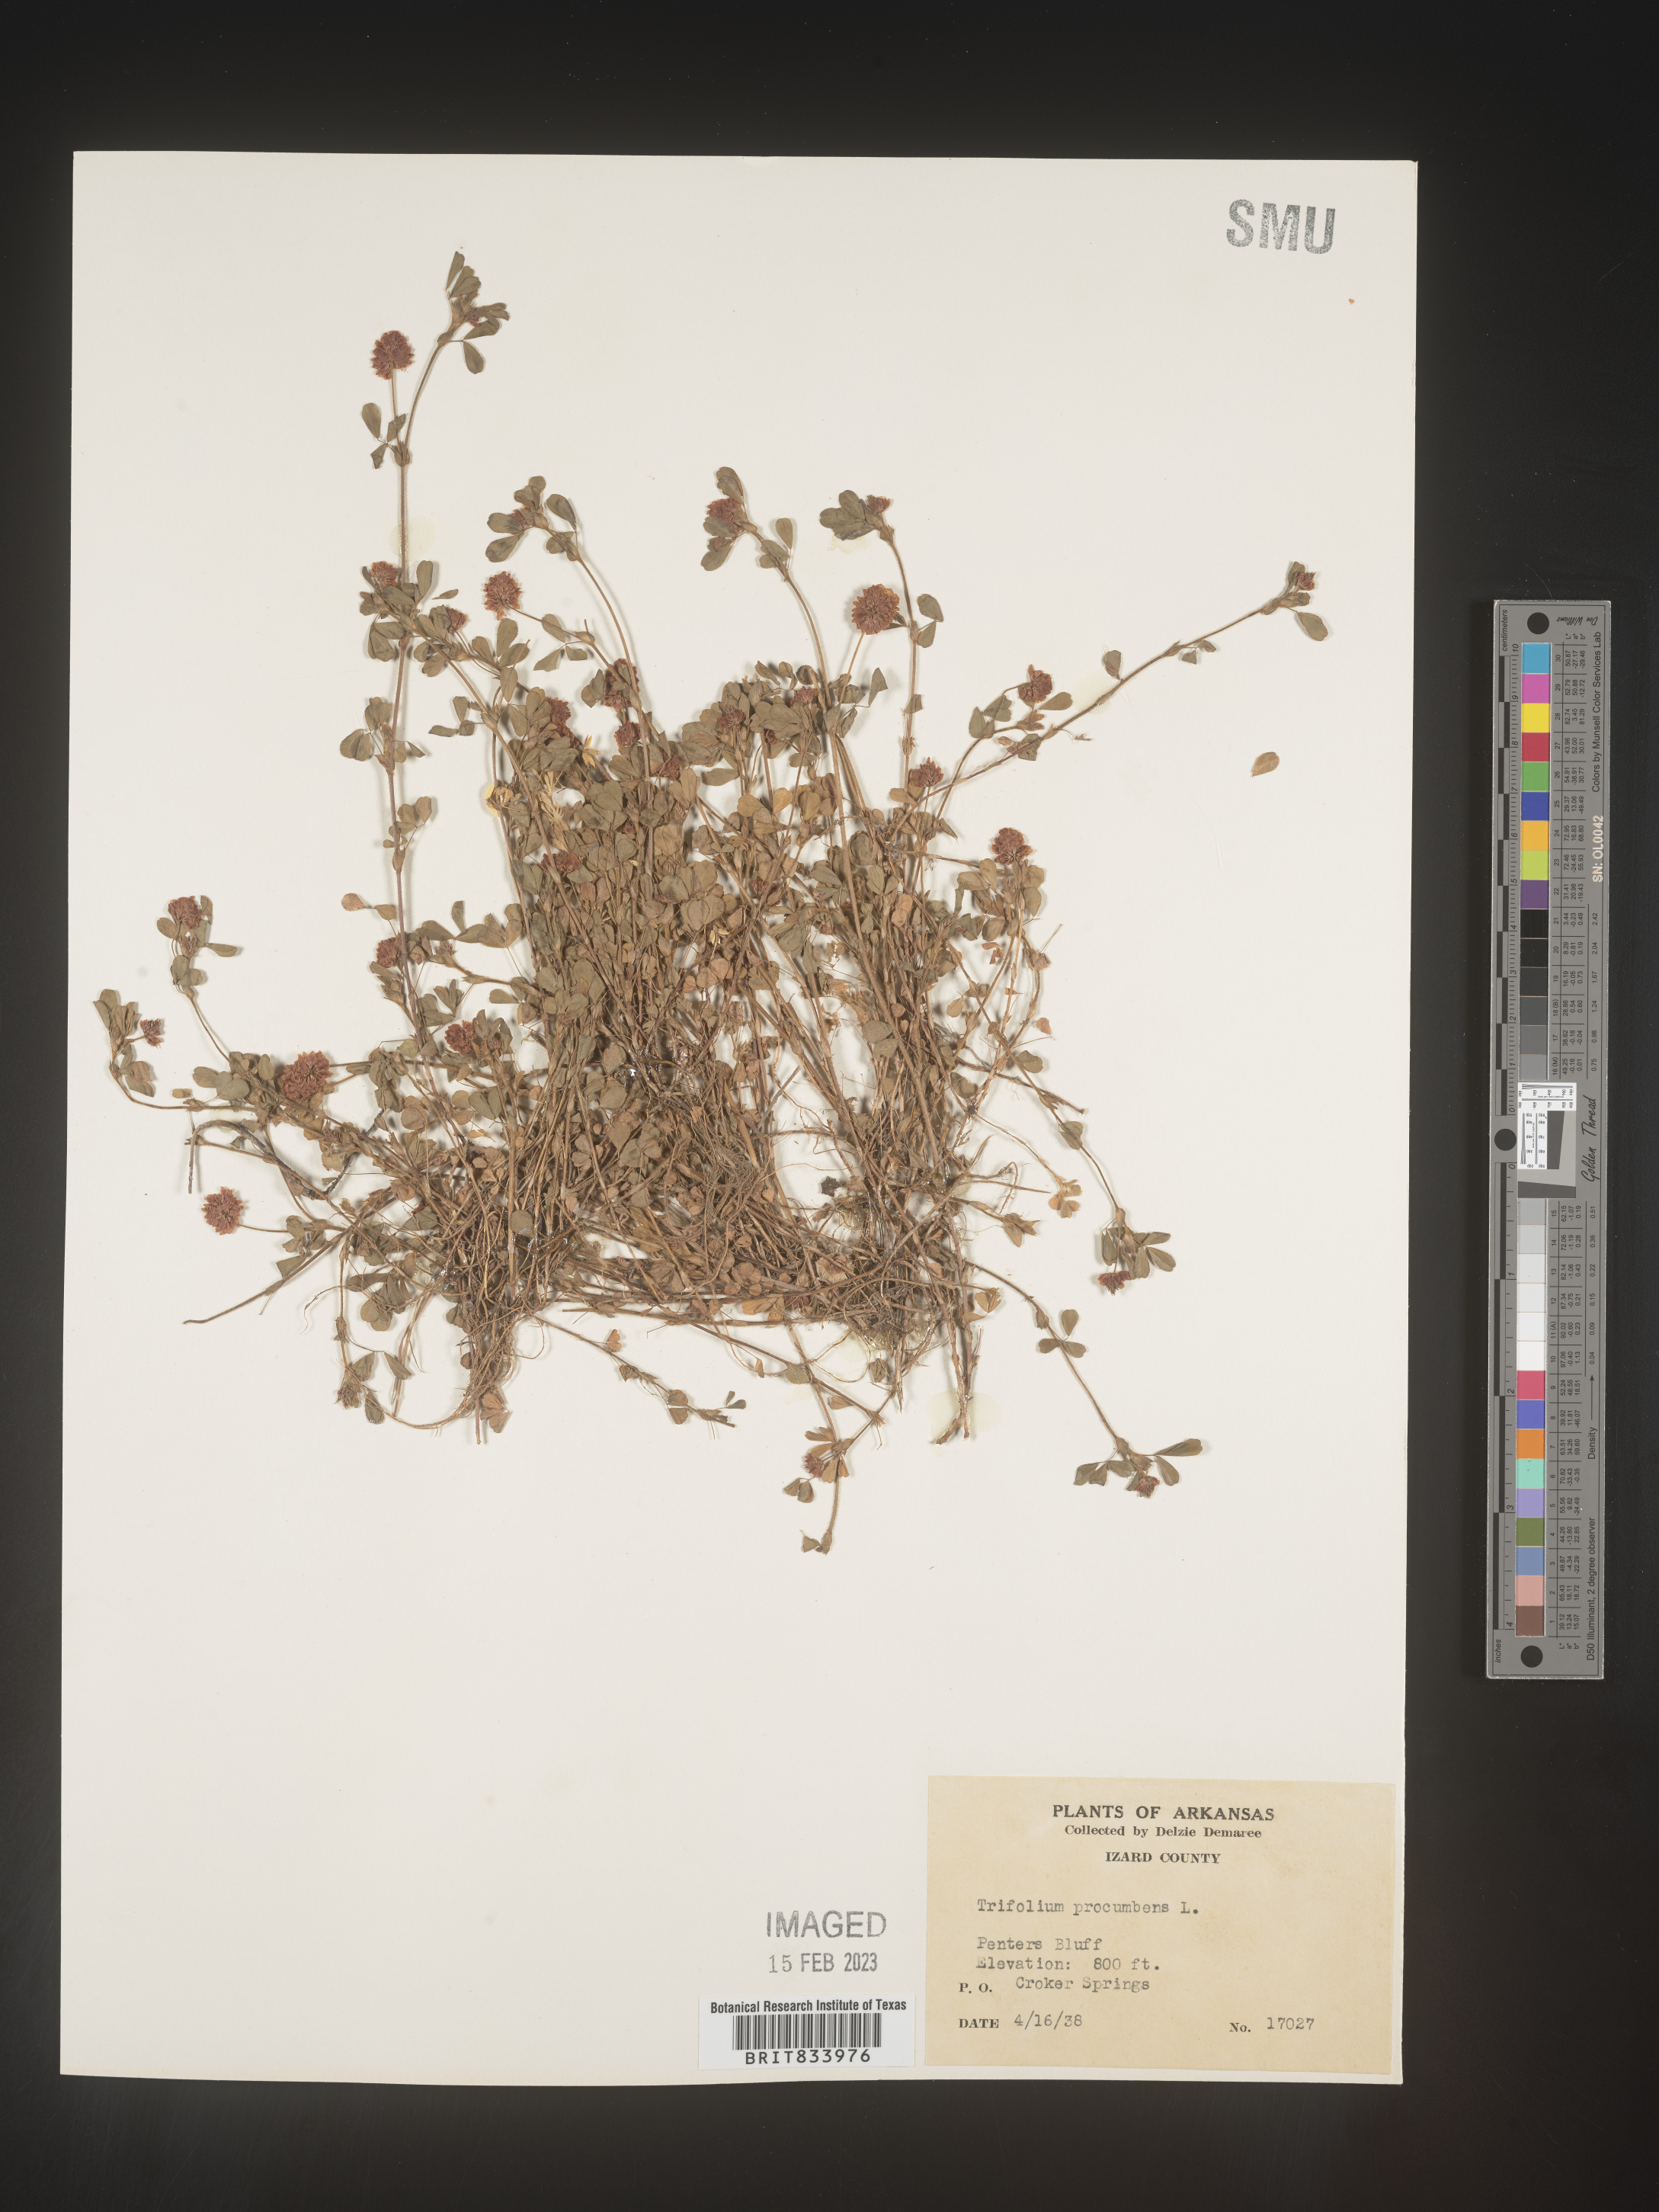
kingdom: Plantae
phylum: Tracheophyta
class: Magnoliopsida
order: Fabales
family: Fabaceae
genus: Trifolium
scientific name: Trifolium campestre
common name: Field clover
